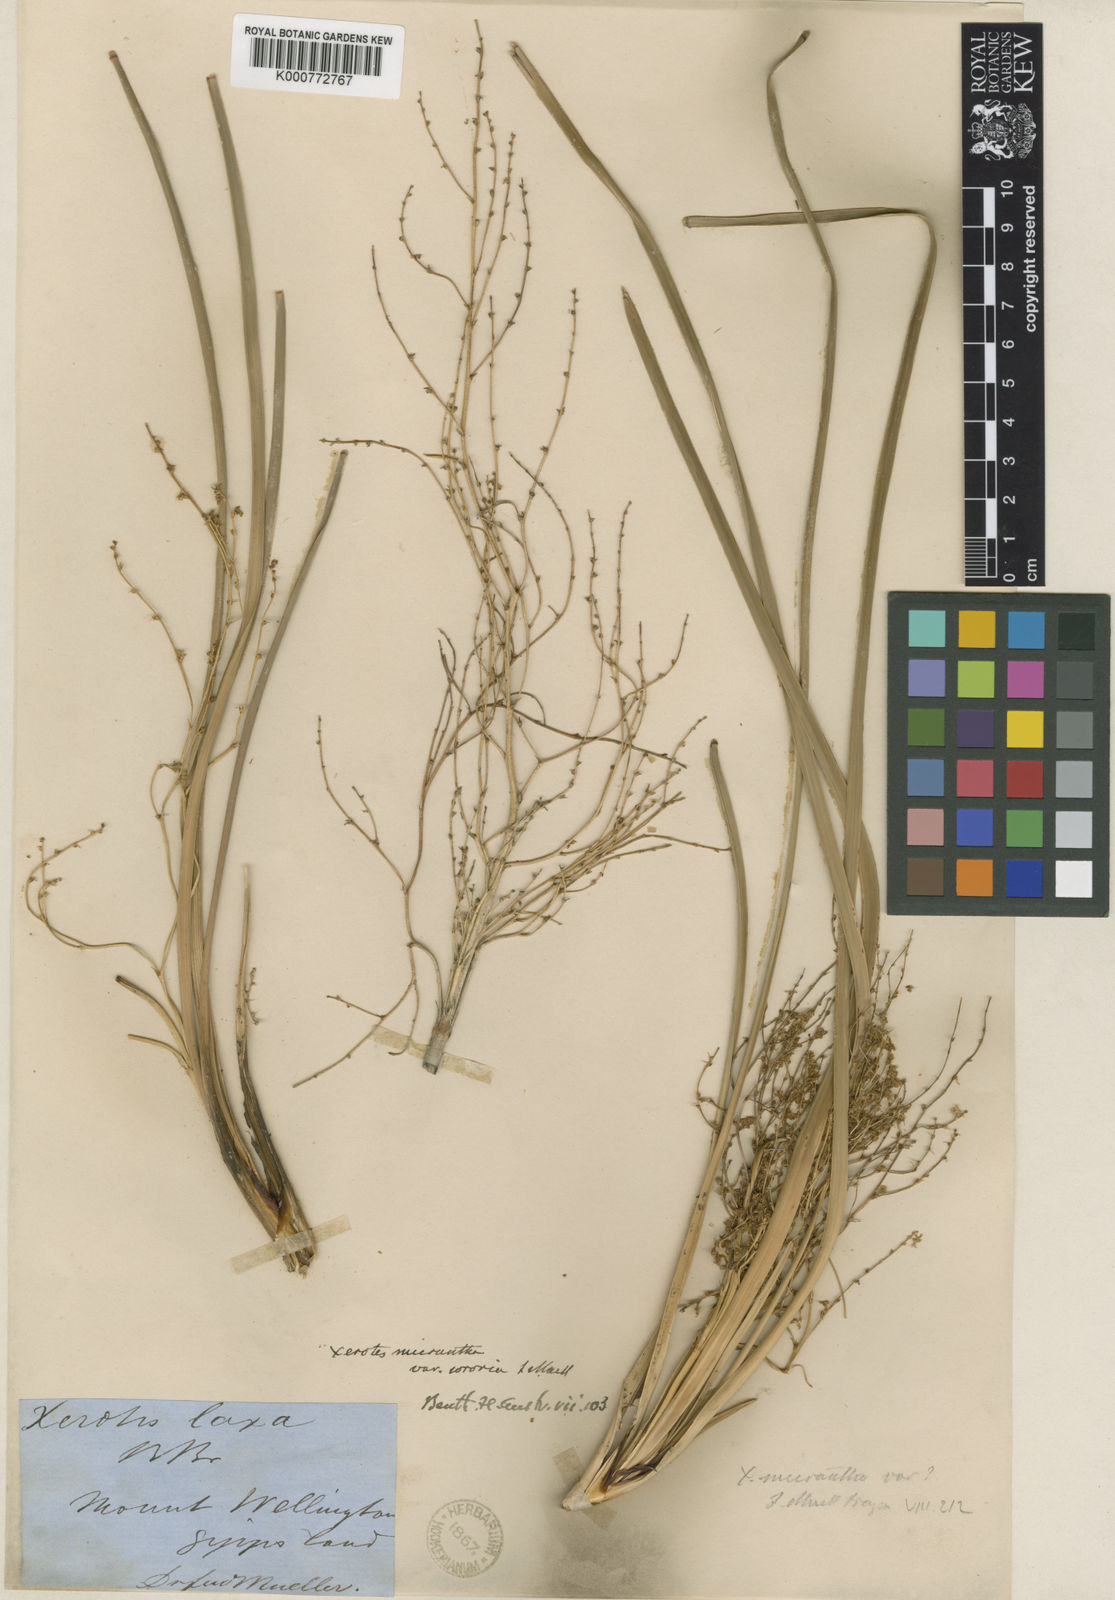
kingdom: Plantae
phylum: Tracheophyta
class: Liliopsida
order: Asparagales
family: Asparagaceae
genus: Lomandra
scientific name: Lomandra micrantha
